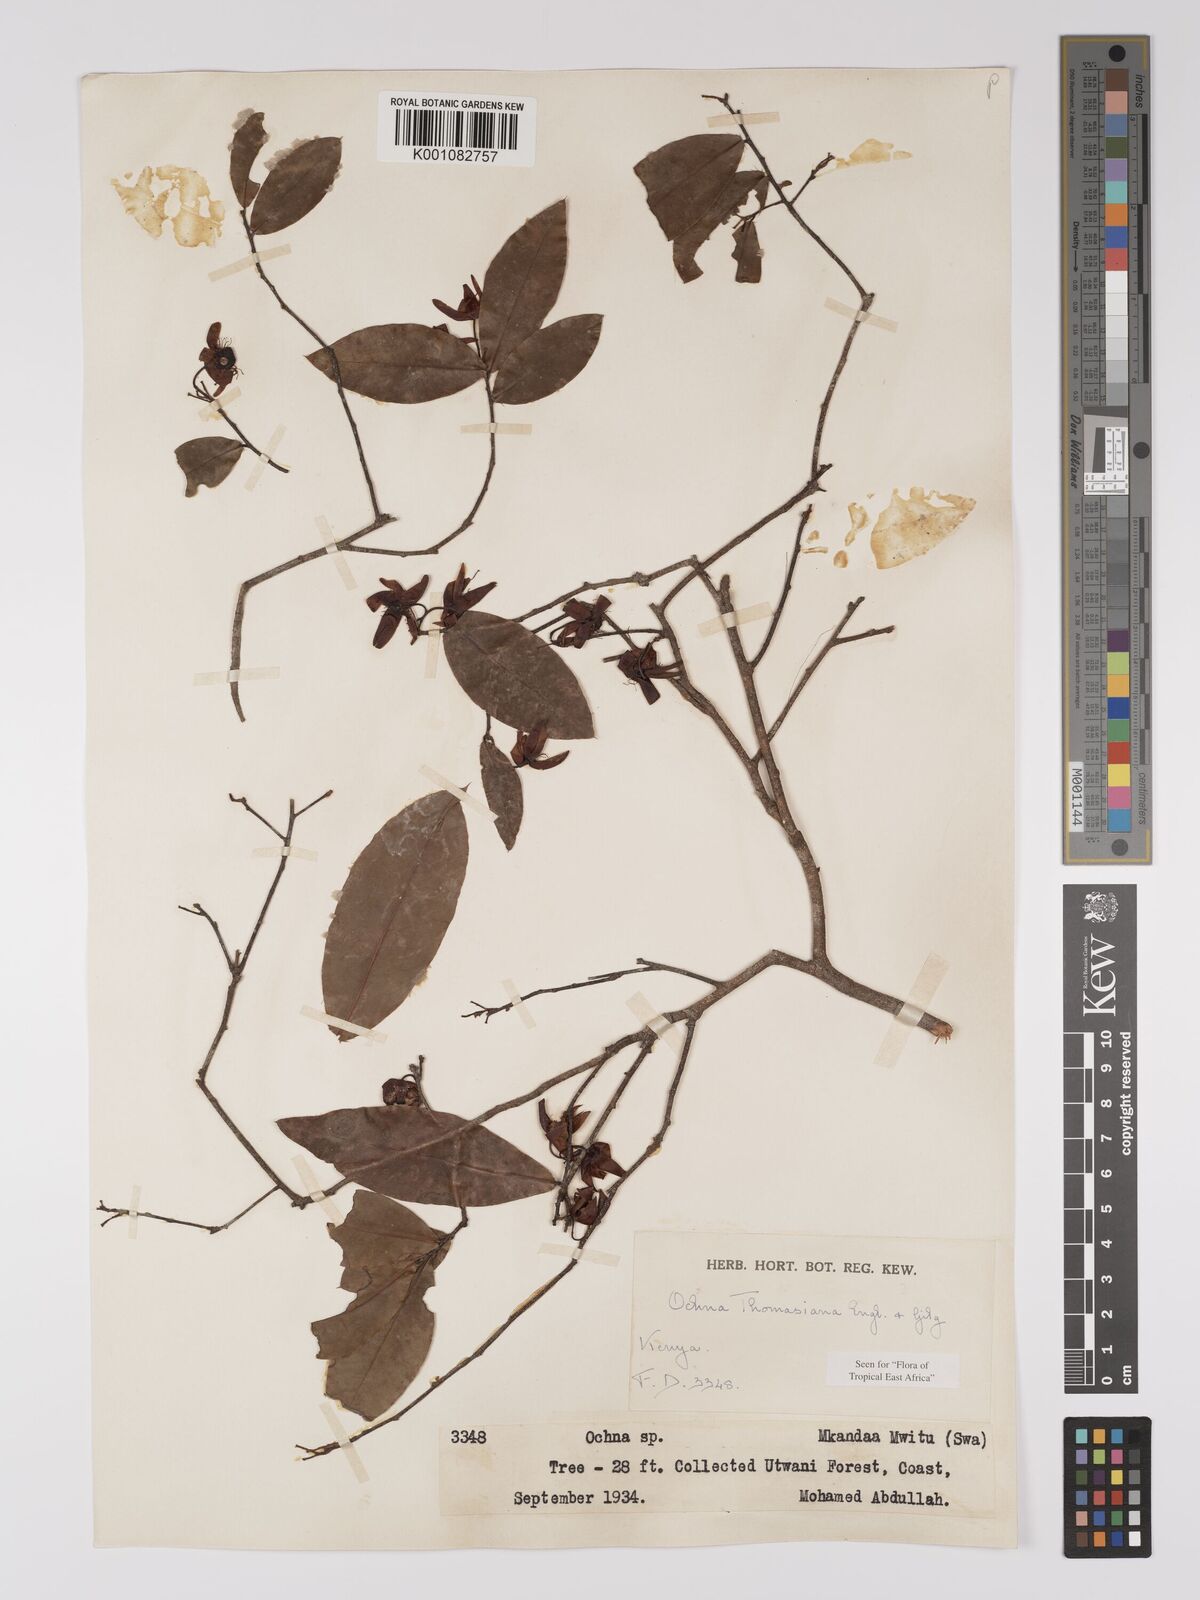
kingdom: Plantae
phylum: Tracheophyta
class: Magnoliopsida
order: Malpighiales
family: Ochnaceae
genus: Ochna
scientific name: Ochna thomasiana
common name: Thomas' bird's-eye bush
